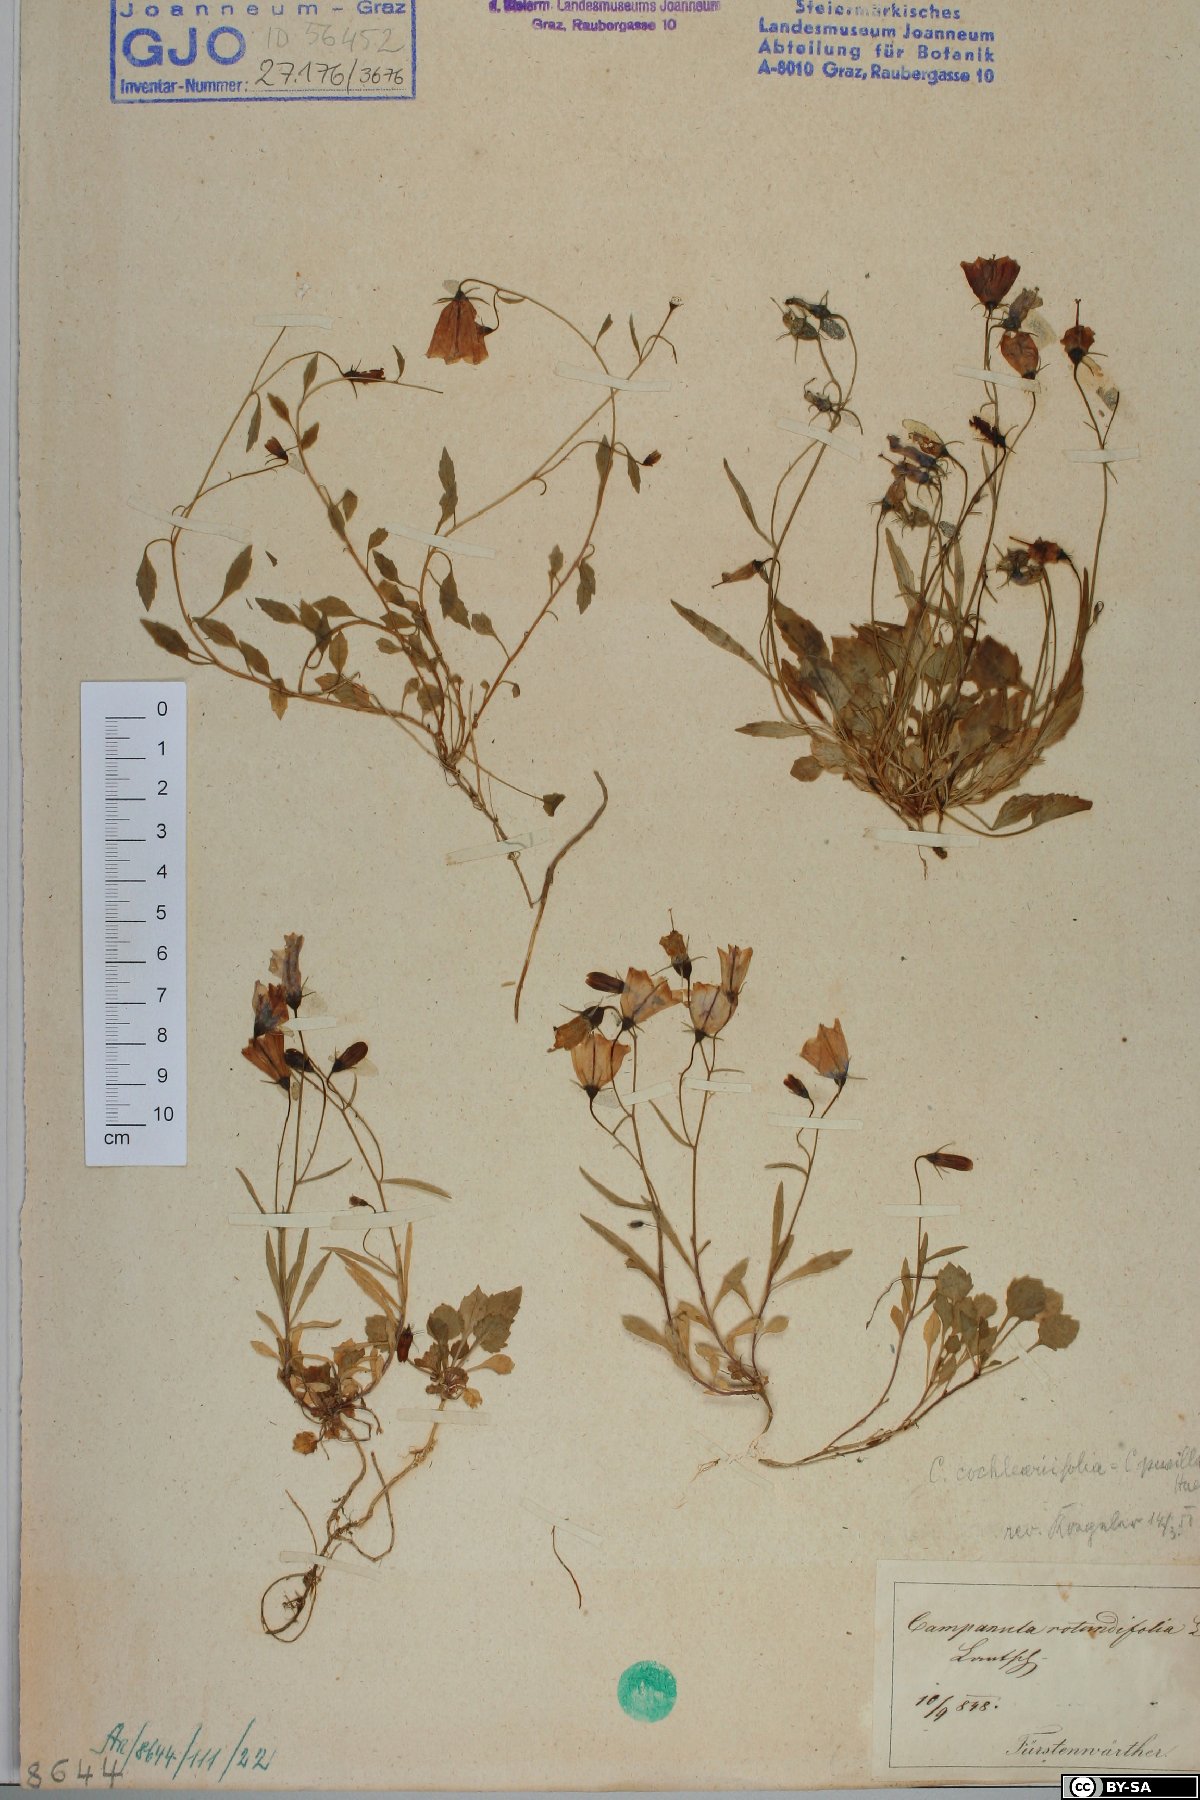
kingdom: Plantae
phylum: Tracheophyta
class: Magnoliopsida
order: Asterales
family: Campanulaceae
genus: Campanula
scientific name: Campanula cochleariifolia
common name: Fairies'-thimbles
